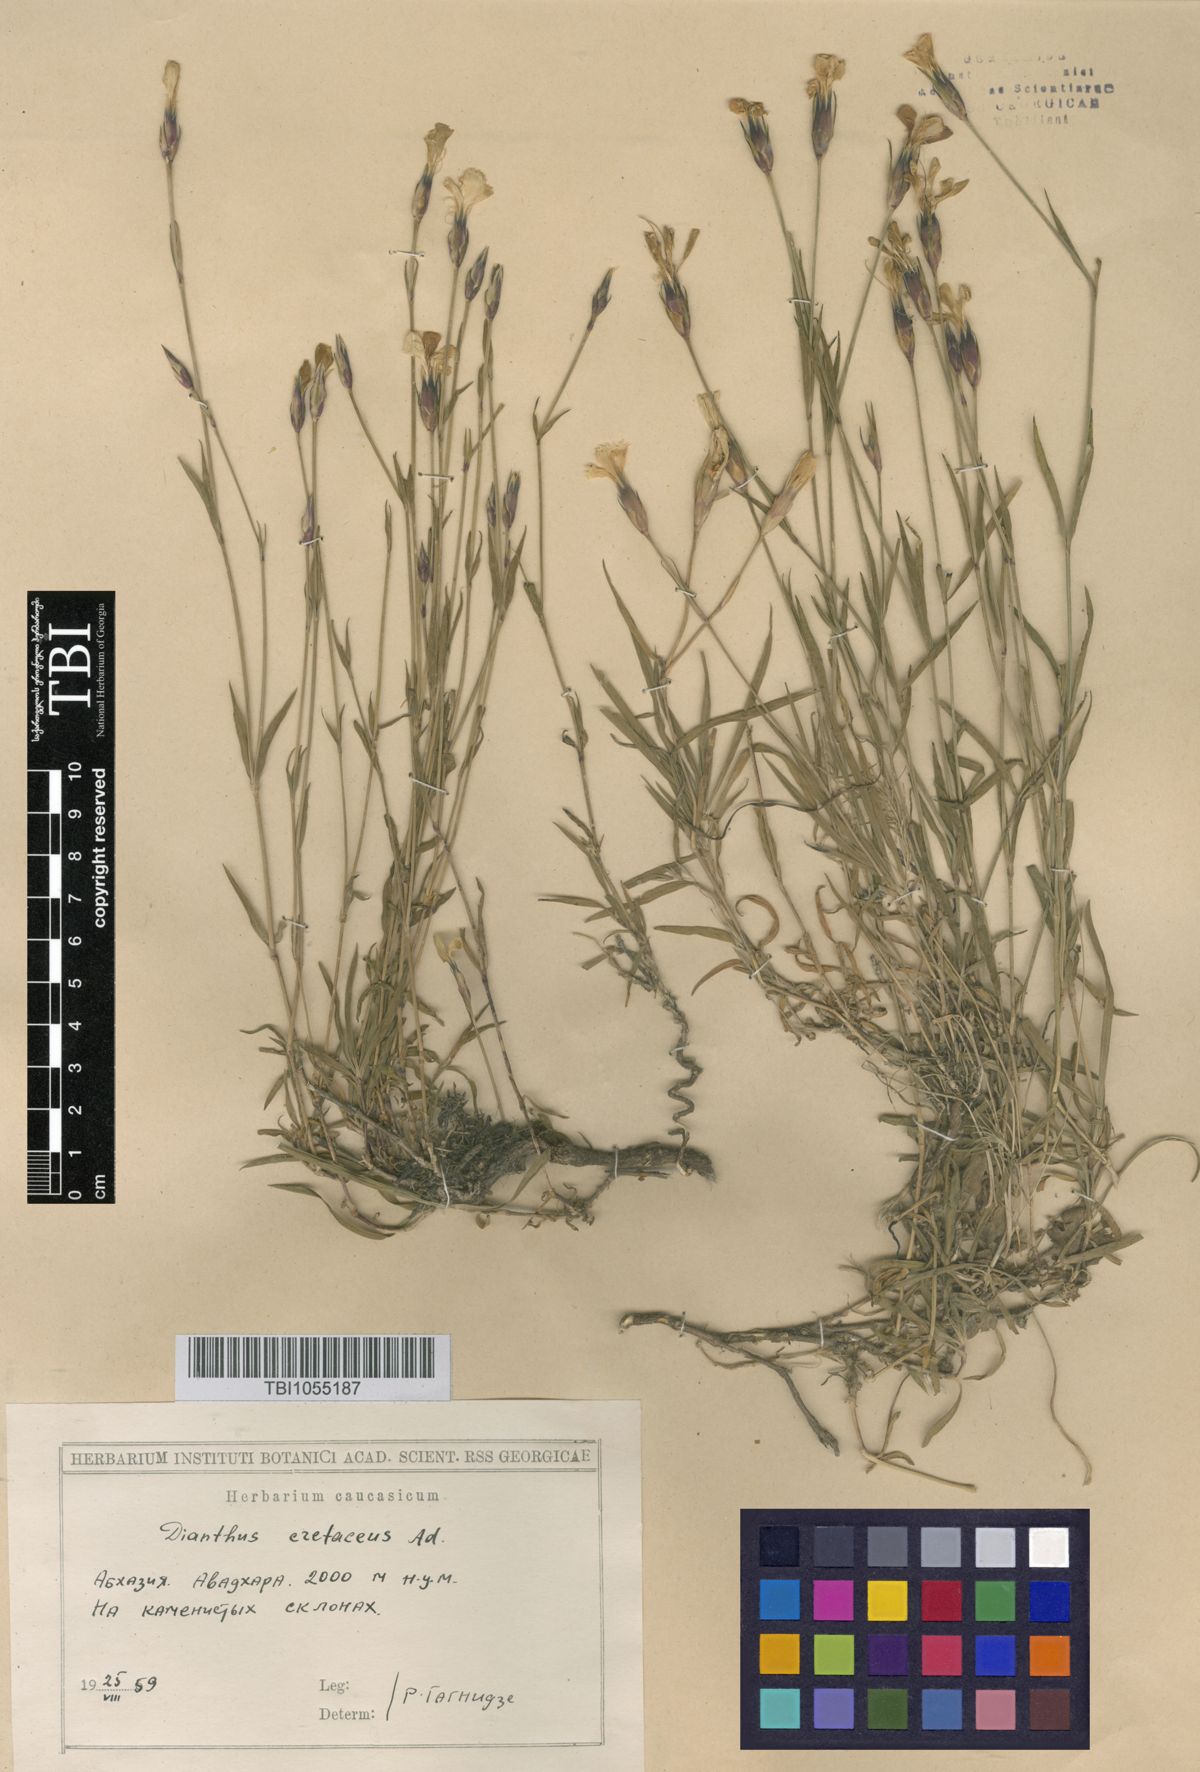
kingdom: Plantae
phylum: Tracheophyta
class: Magnoliopsida
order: Caryophyllales
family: Caryophyllaceae
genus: Dianthus
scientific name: Dianthus cretaceus
